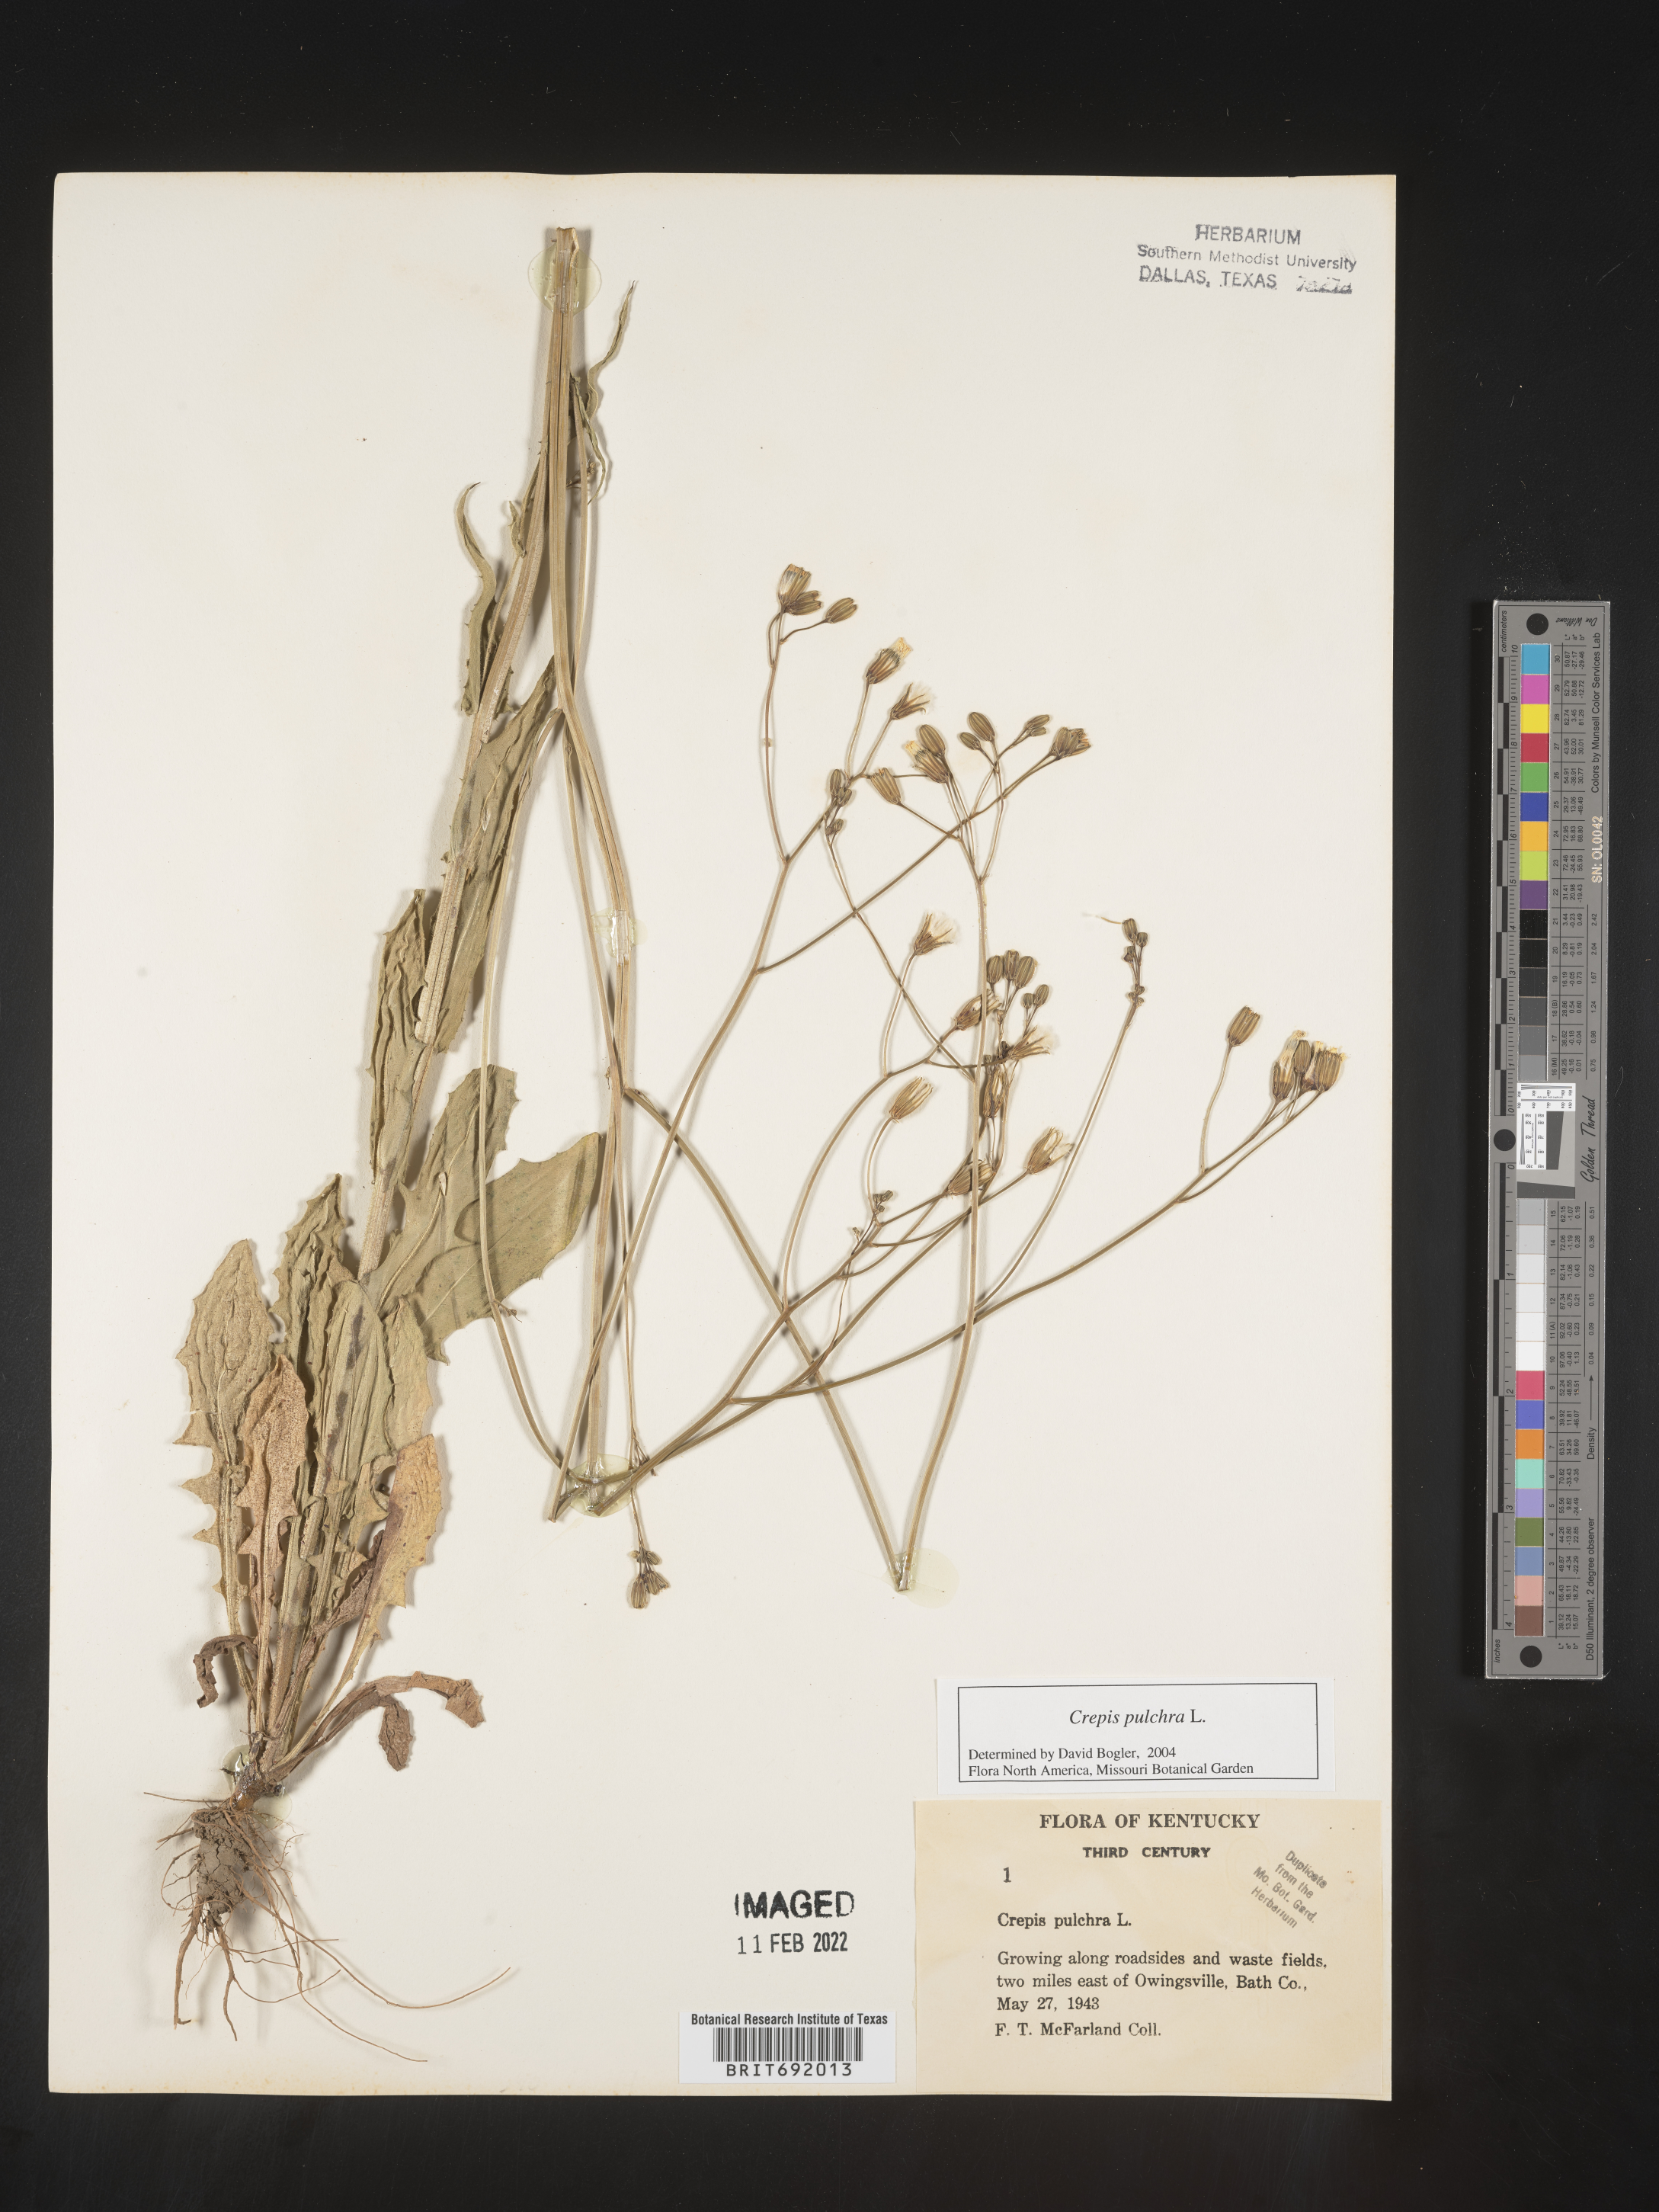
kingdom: Plantae
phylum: Tracheophyta
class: Magnoliopsida
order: Asterales
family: Asteraceae
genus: Crepis
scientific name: Crepis pulchra
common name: Hawk's-beard
